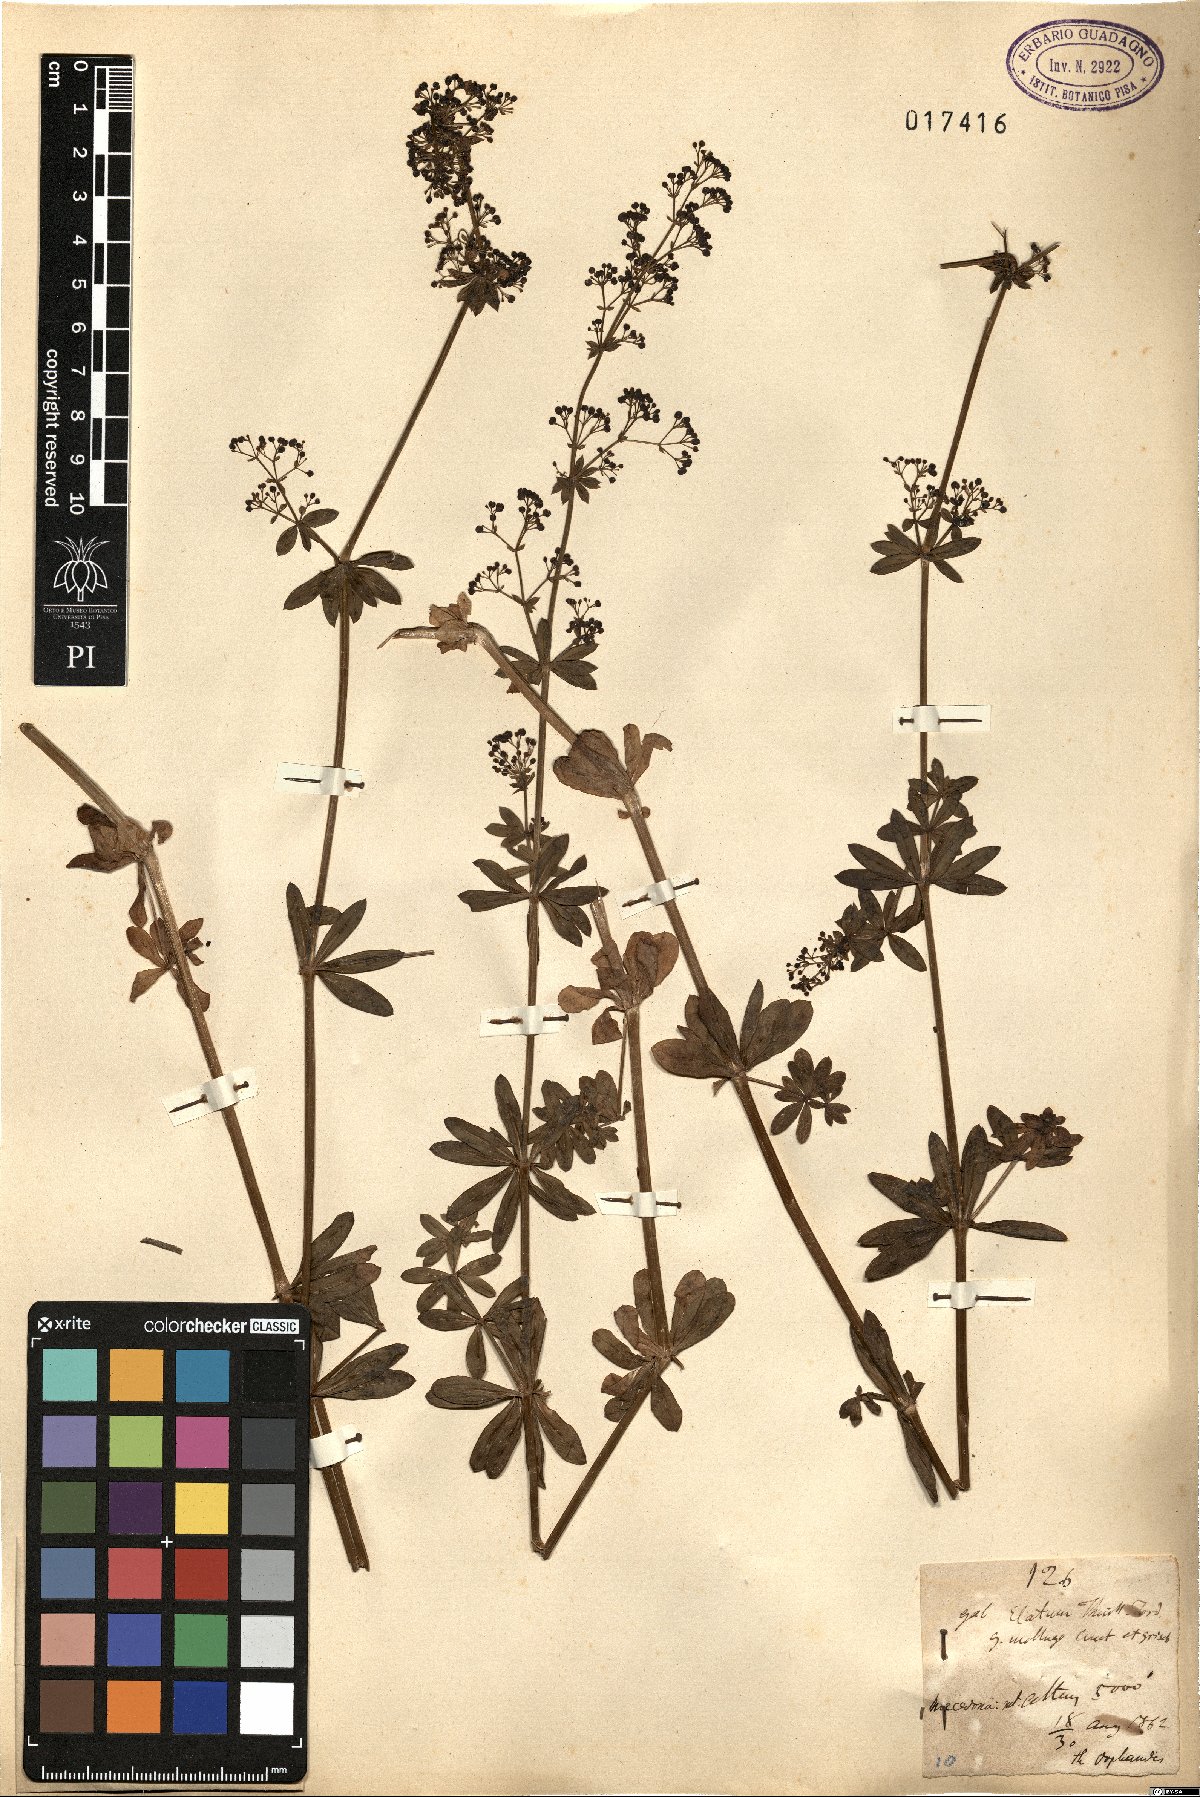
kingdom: Plantae
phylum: Tracheophyta
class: Magnoliopsida
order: Gentianales
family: Rubiaceae
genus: Galium
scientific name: Galium mollugo
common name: Hedge bedstraw
